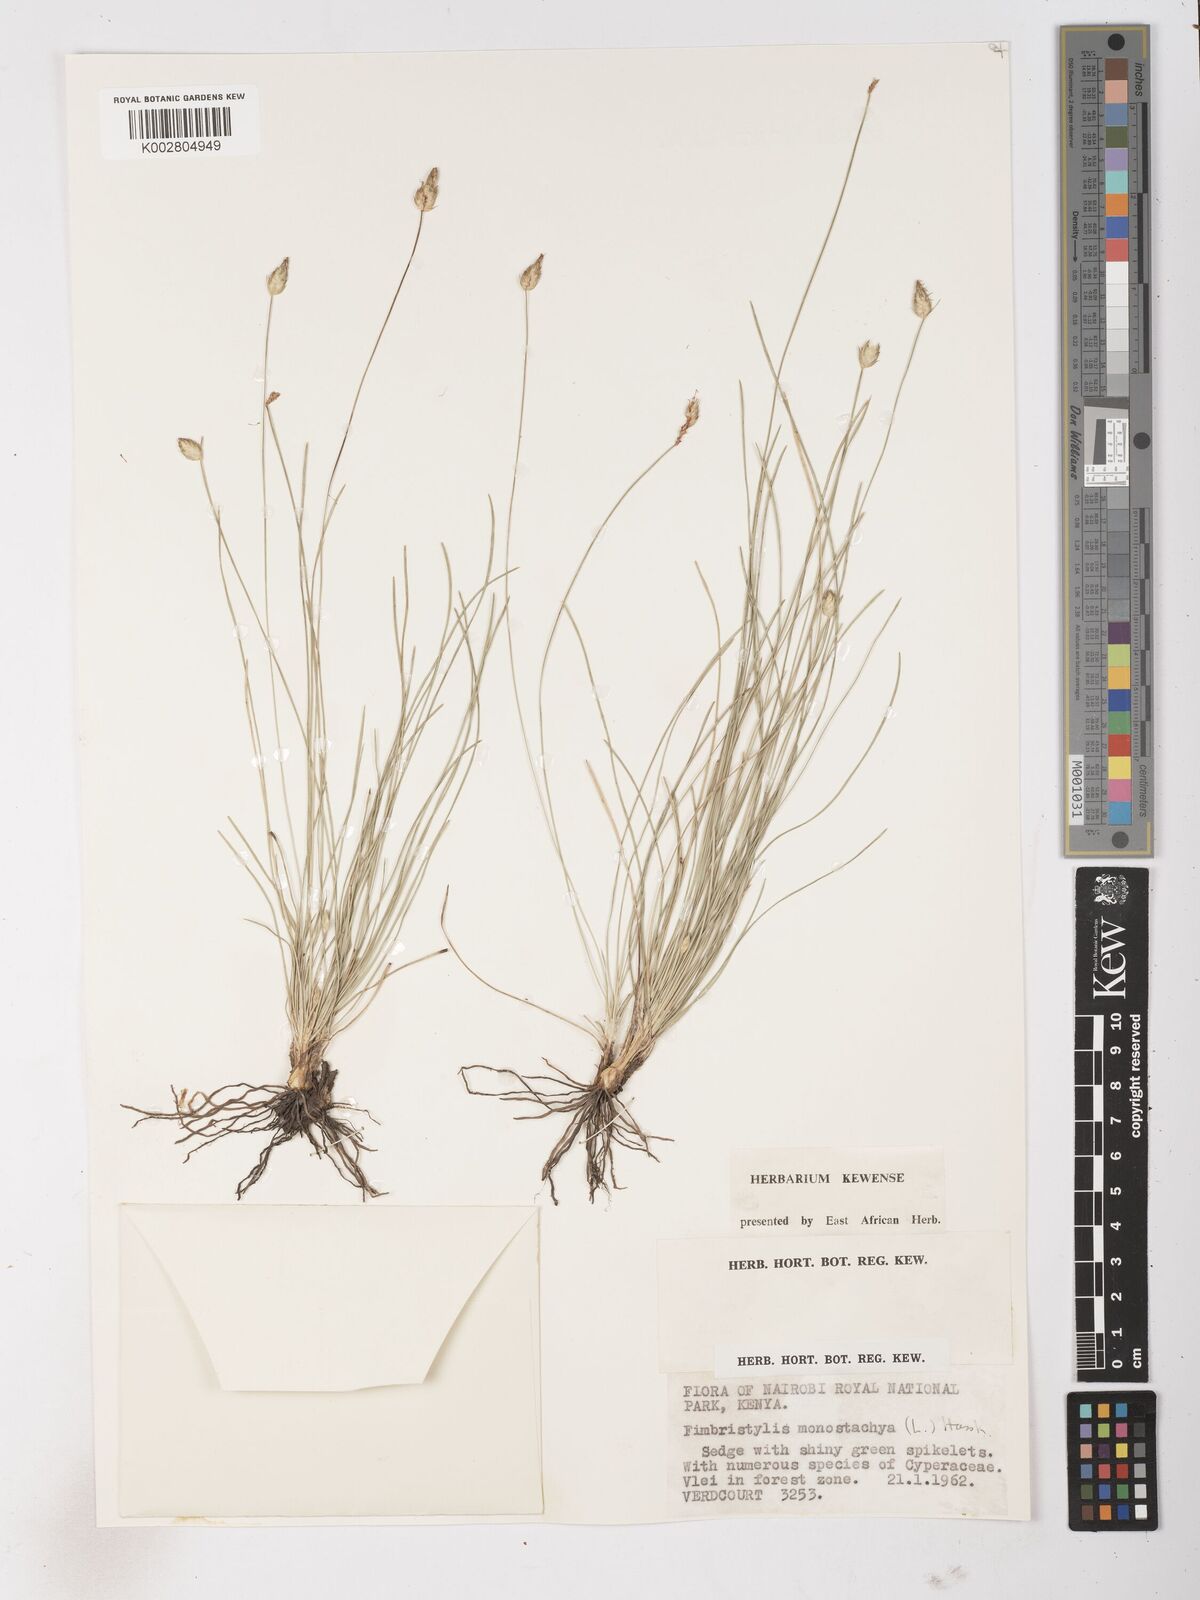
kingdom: Plantae
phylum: Tracheophyta
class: Liliopsida
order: Poales
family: Cyperaceae
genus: Abildgaardia
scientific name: Abildgaardia ovata
